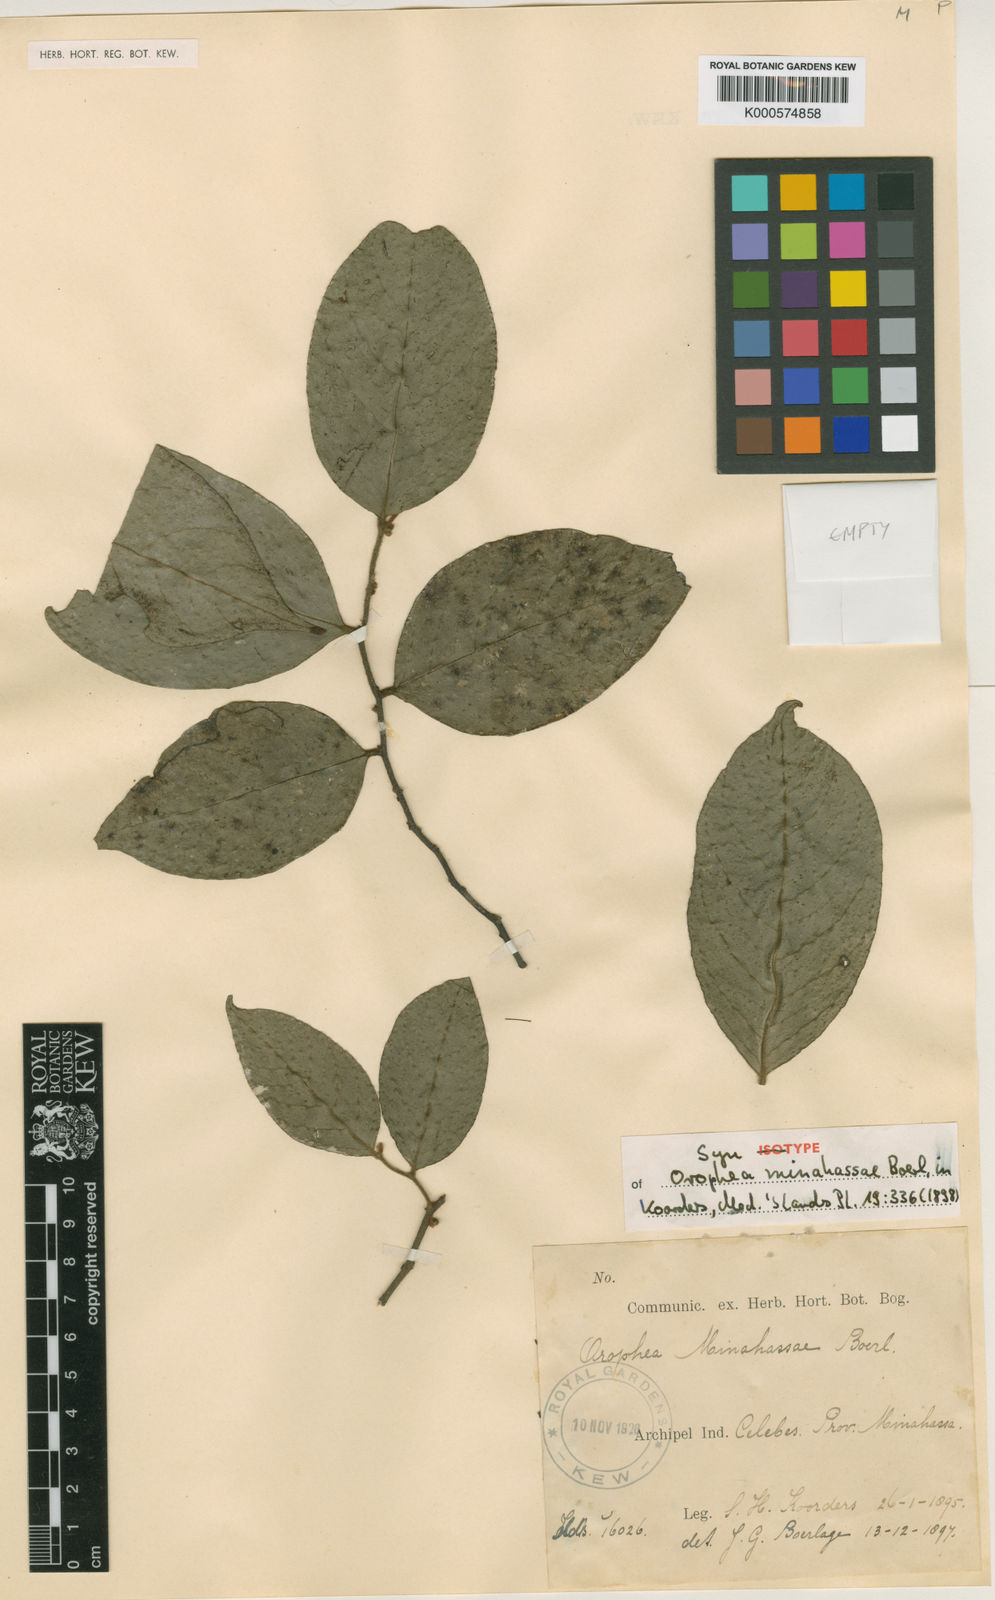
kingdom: Plantae
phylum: Tracheophyta
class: Magnoliopsida
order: Magnoliales
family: Annonaceae
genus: Orophea
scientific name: Orophea
